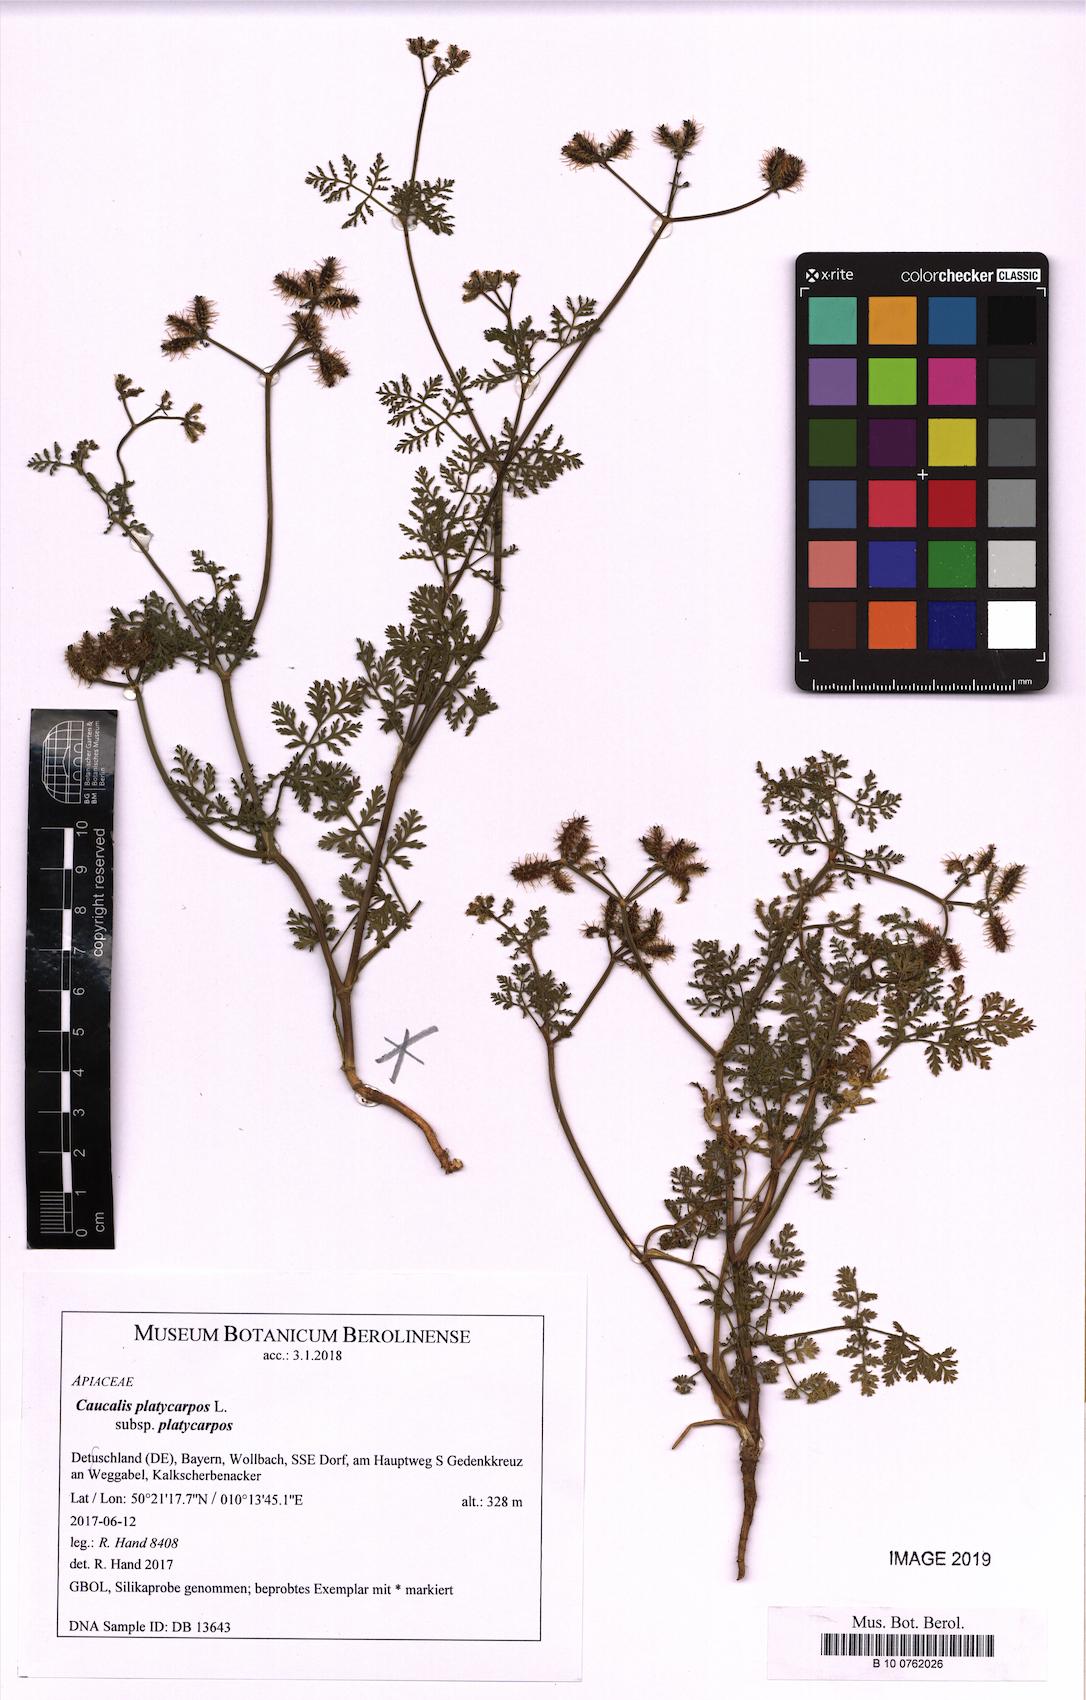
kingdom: Plantae
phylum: Tracheophyta
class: Magnoliopsida
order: Apiales
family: Apiaceae
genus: Caucalis
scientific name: Caucalis platycarpos
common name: Small bur-parsley
